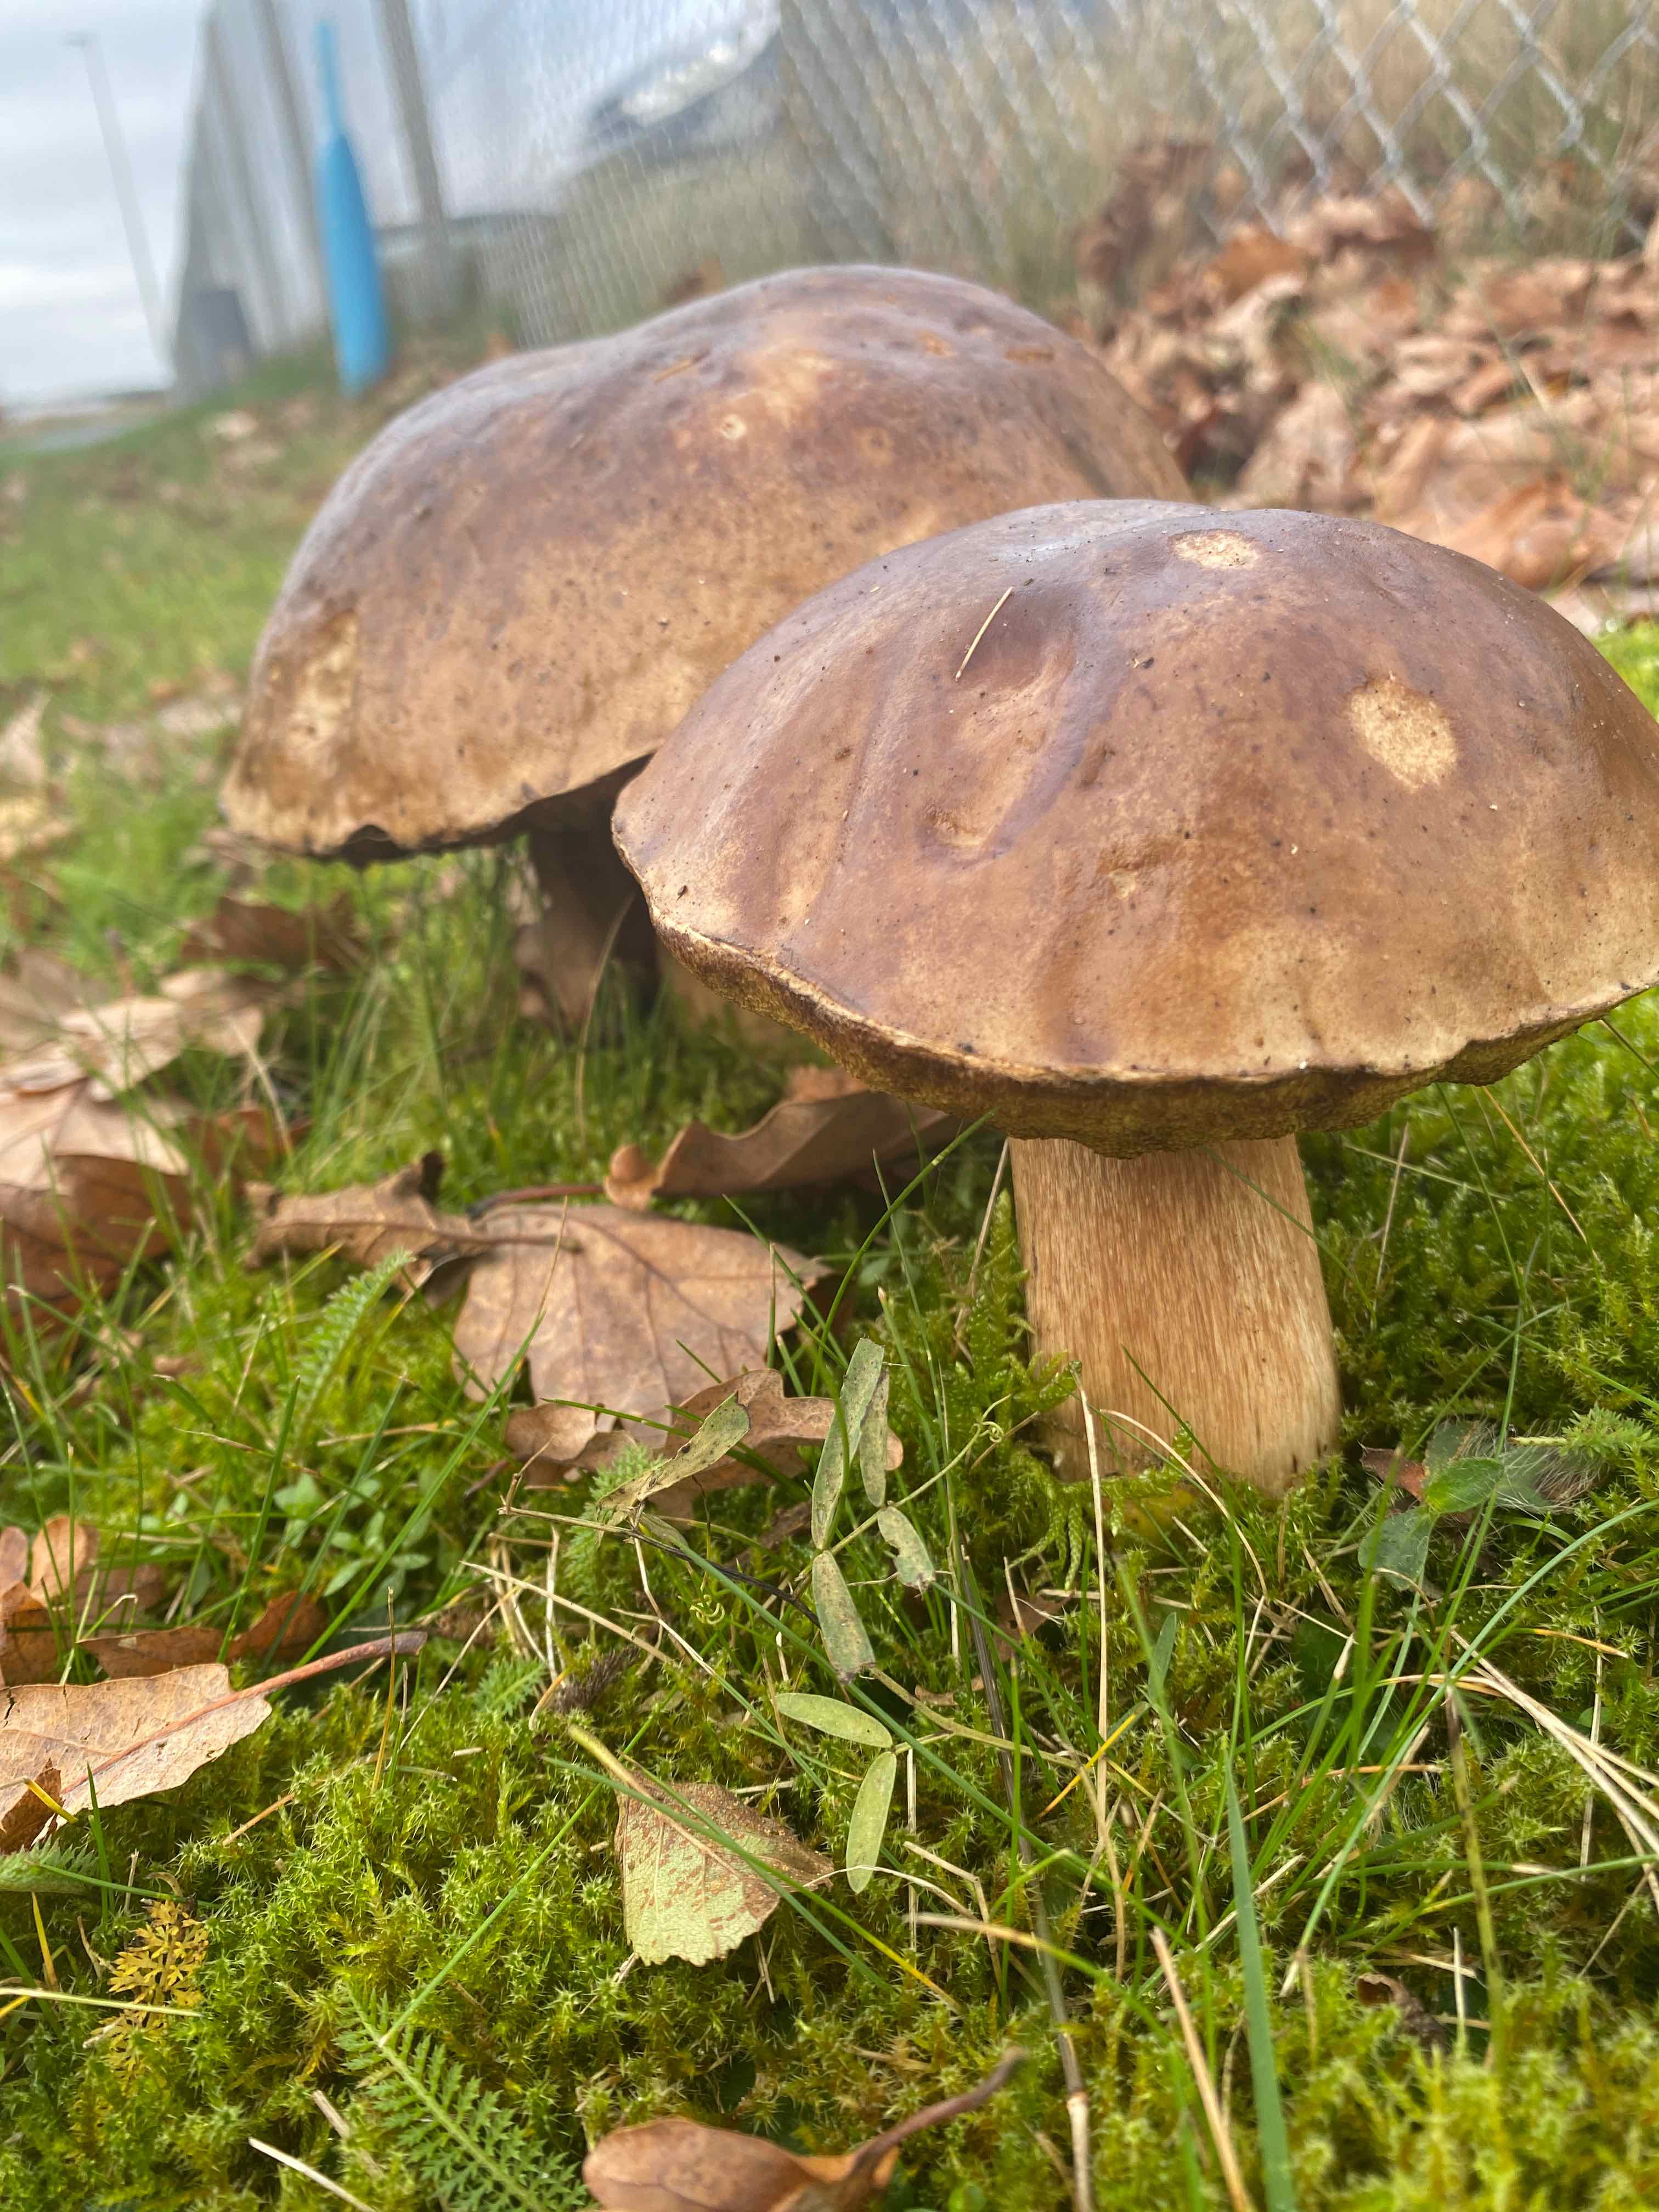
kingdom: Fungi
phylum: Basidiomycota
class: Agaricomycetes
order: Boletales
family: Boletaceae
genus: Boletus
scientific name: Boletus edulis
